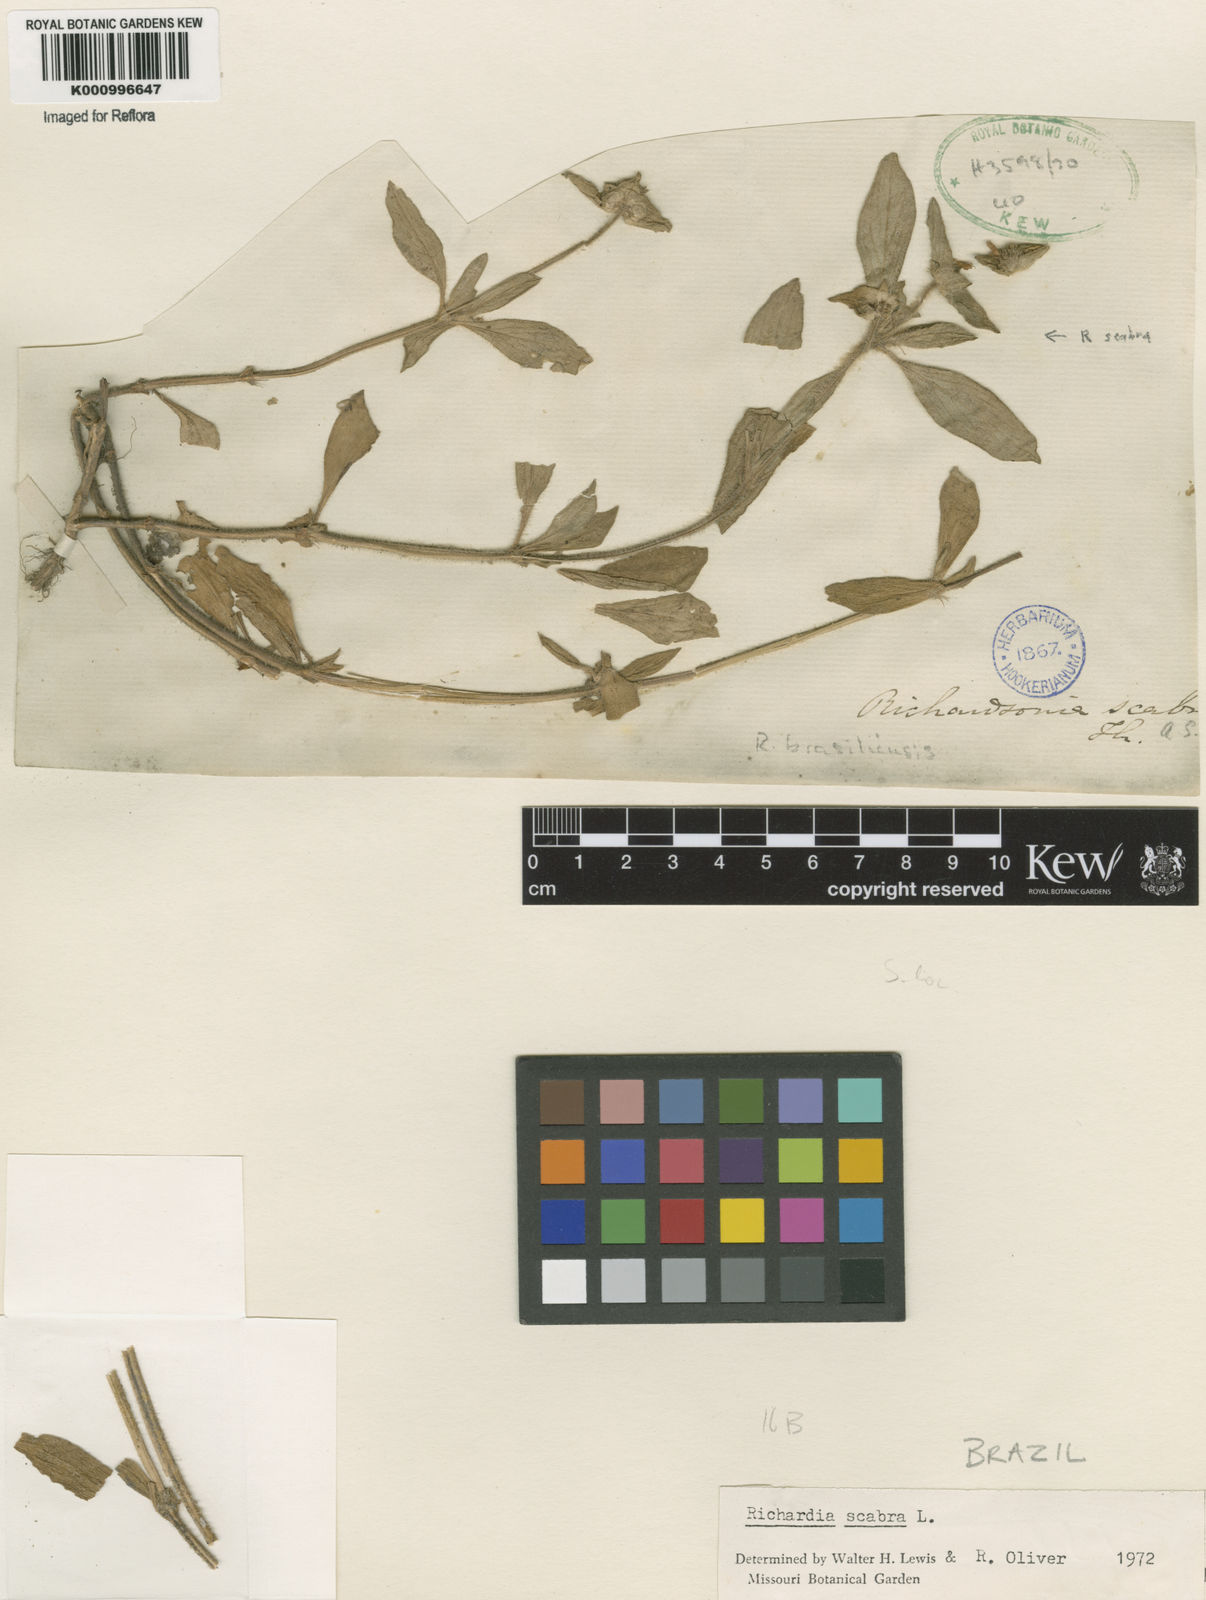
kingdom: Plantae
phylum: Tracheophyta
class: Magnoliopsida
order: Gentianales
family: Rubiaceae
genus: Richardia
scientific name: Richardia scabra
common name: Rough mexican clover
